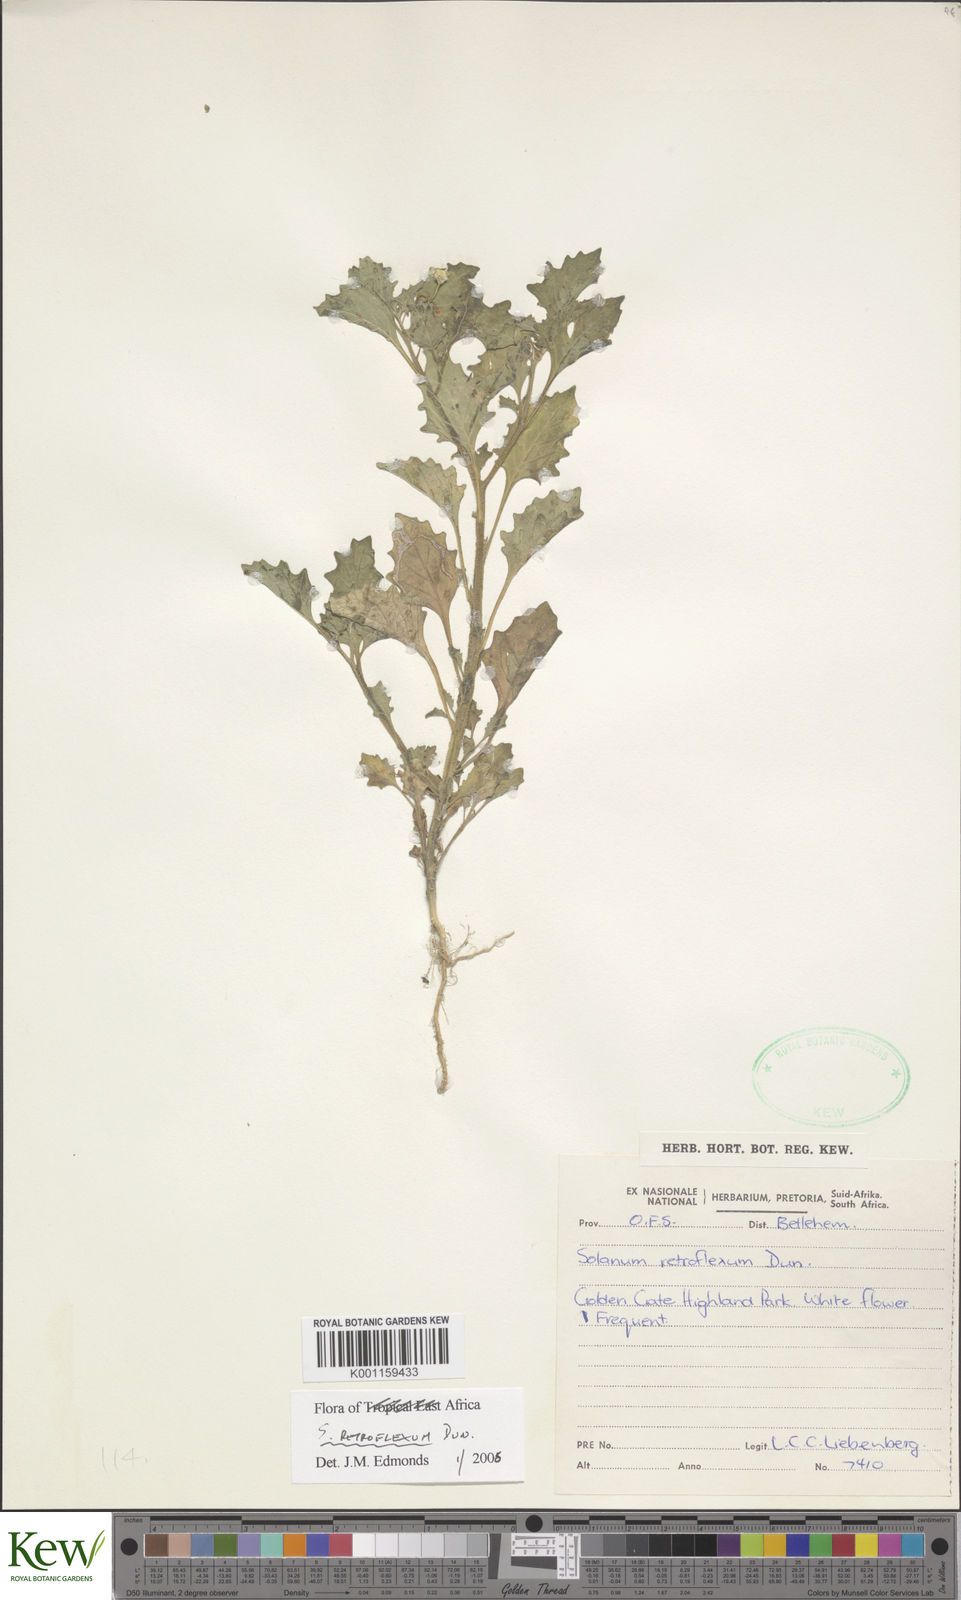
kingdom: Plantae
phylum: Tracheophyta
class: Magnoliopsida
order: Solanales
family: Solanaceae
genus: Solanum
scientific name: Solanum retroflexum
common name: Wonderberry
